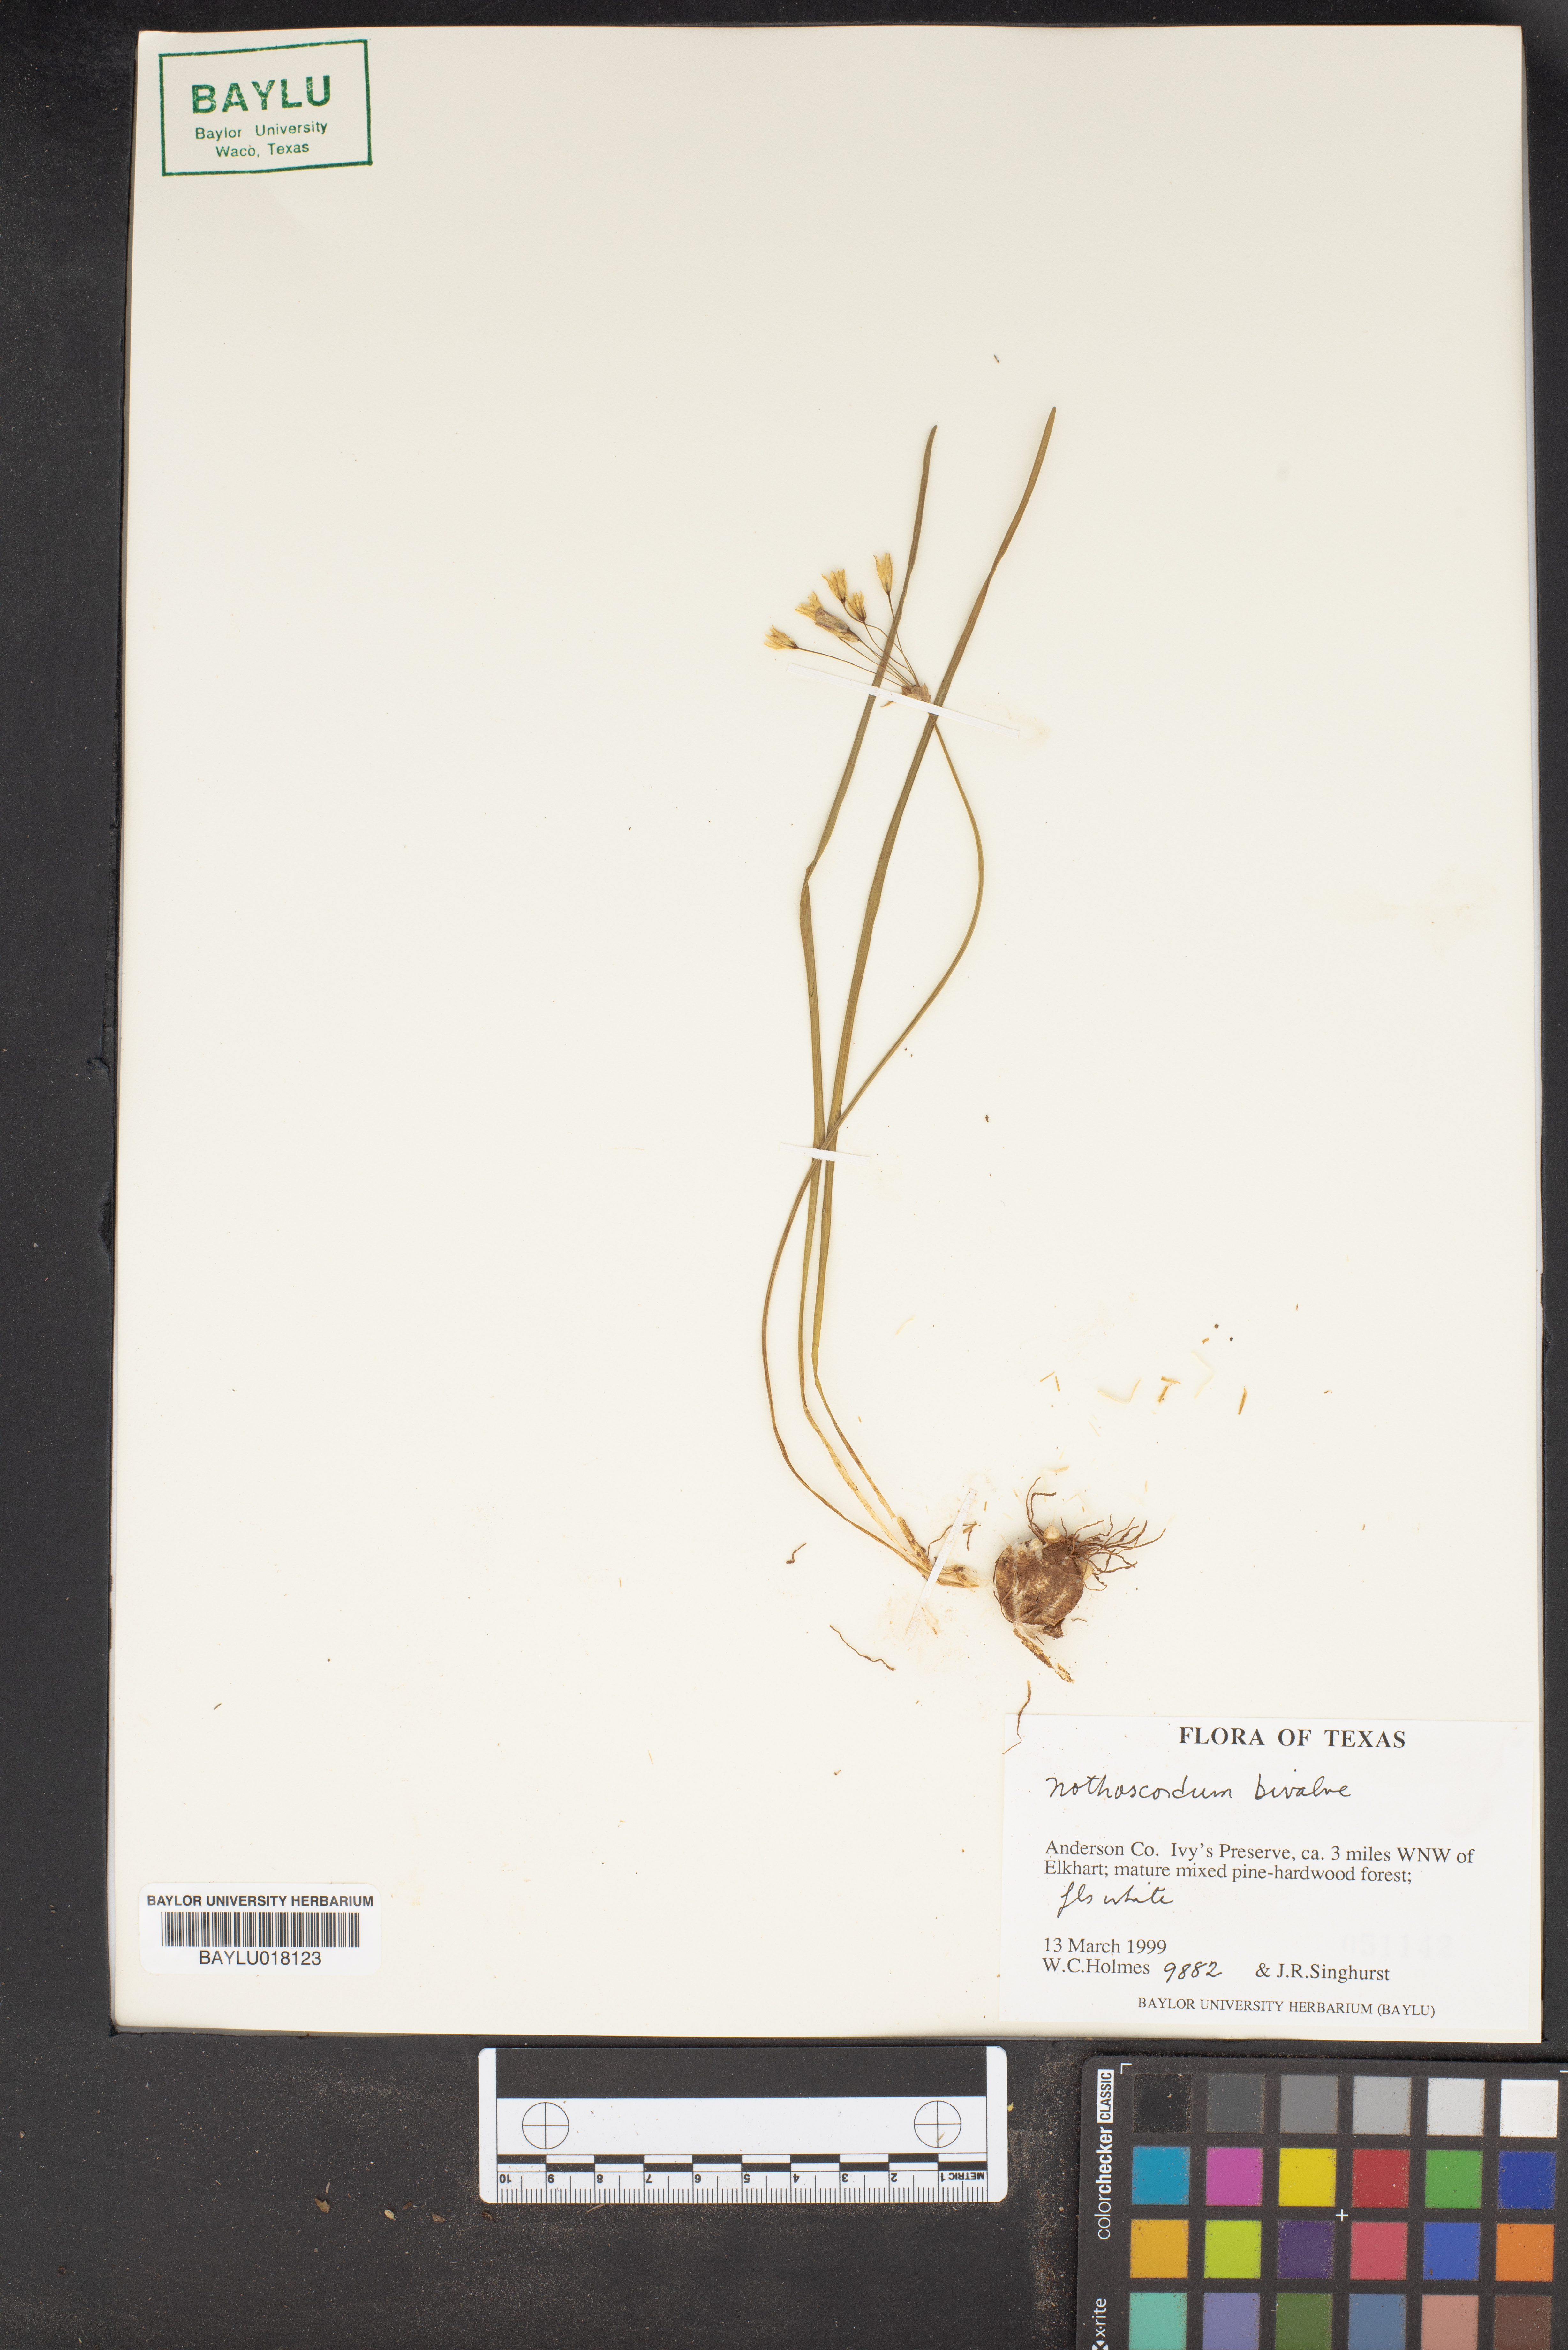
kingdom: Plantae
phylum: Tracheophyta
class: Liliopsida
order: Asparagales
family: Amaryllidaceae
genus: Nothoscordum
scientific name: Nothoscordum bivalve
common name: Crow-poison
